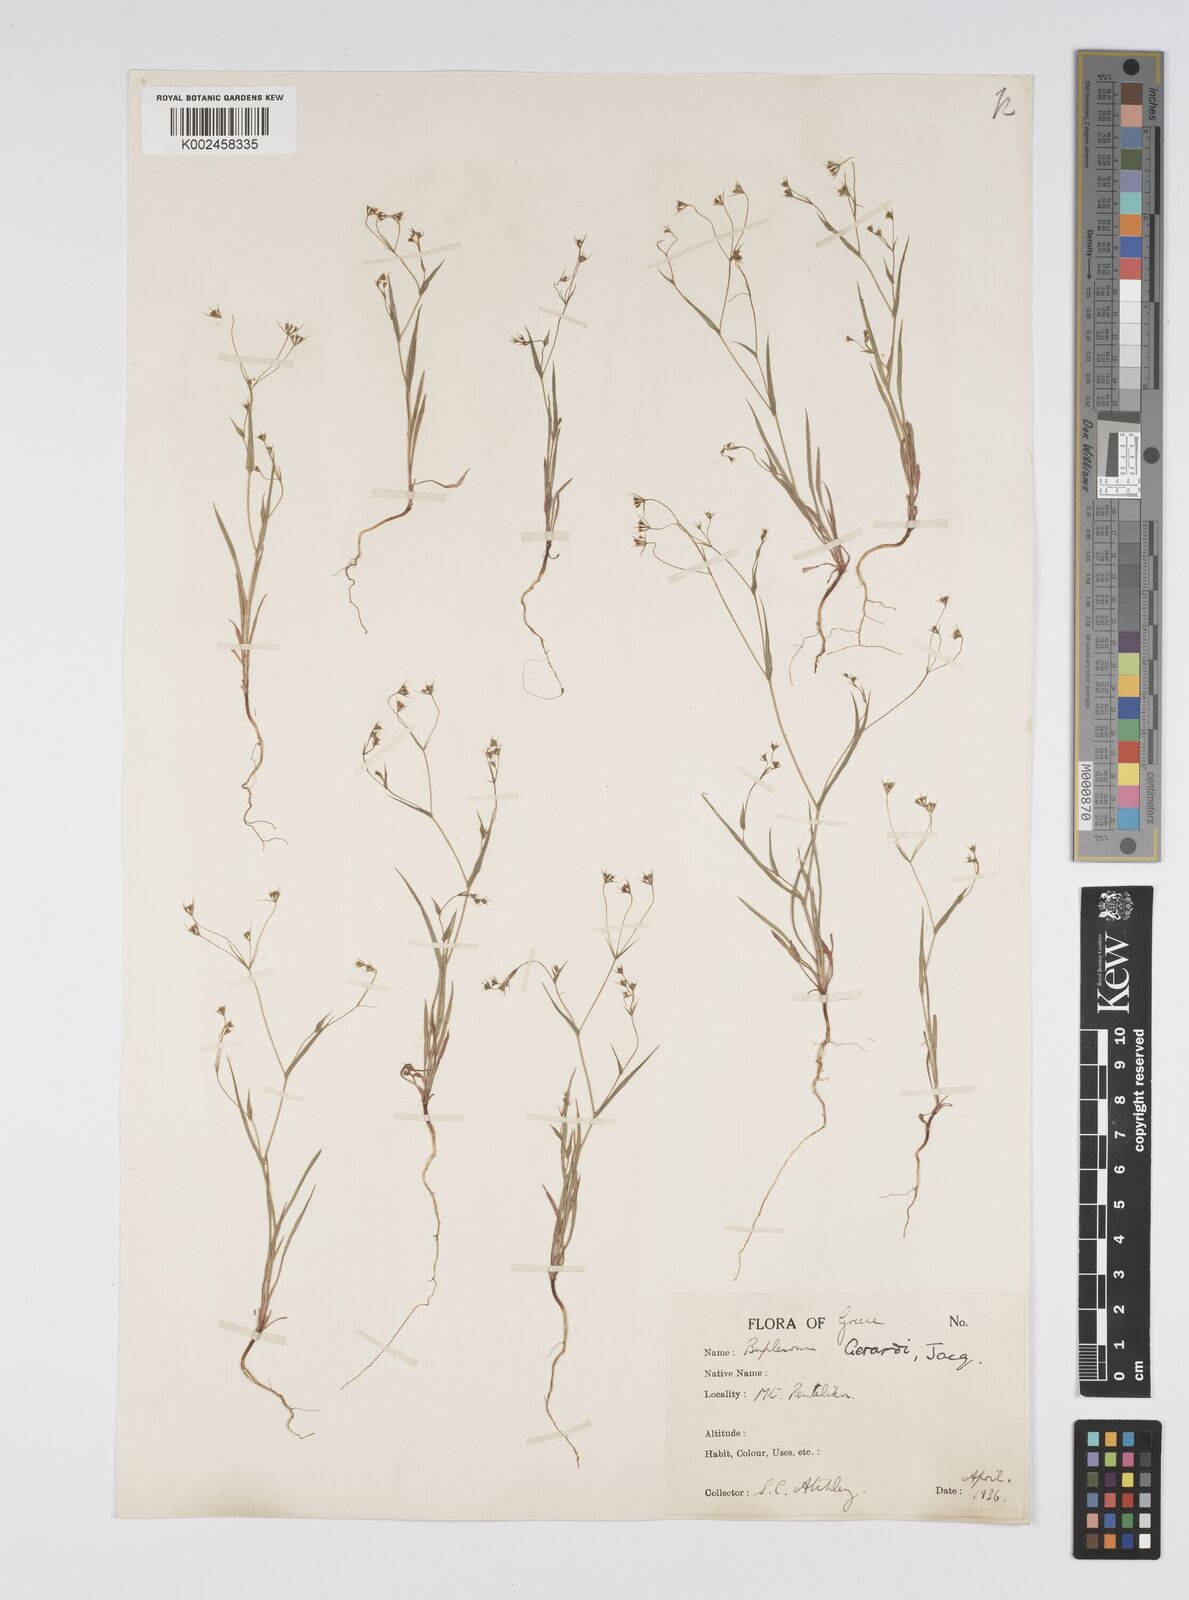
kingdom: Plantae
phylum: Tracheophyta
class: Magnoliopsida
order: Apiales
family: Apiaceae
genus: Bupleurum
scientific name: Bupleurum gerardi
